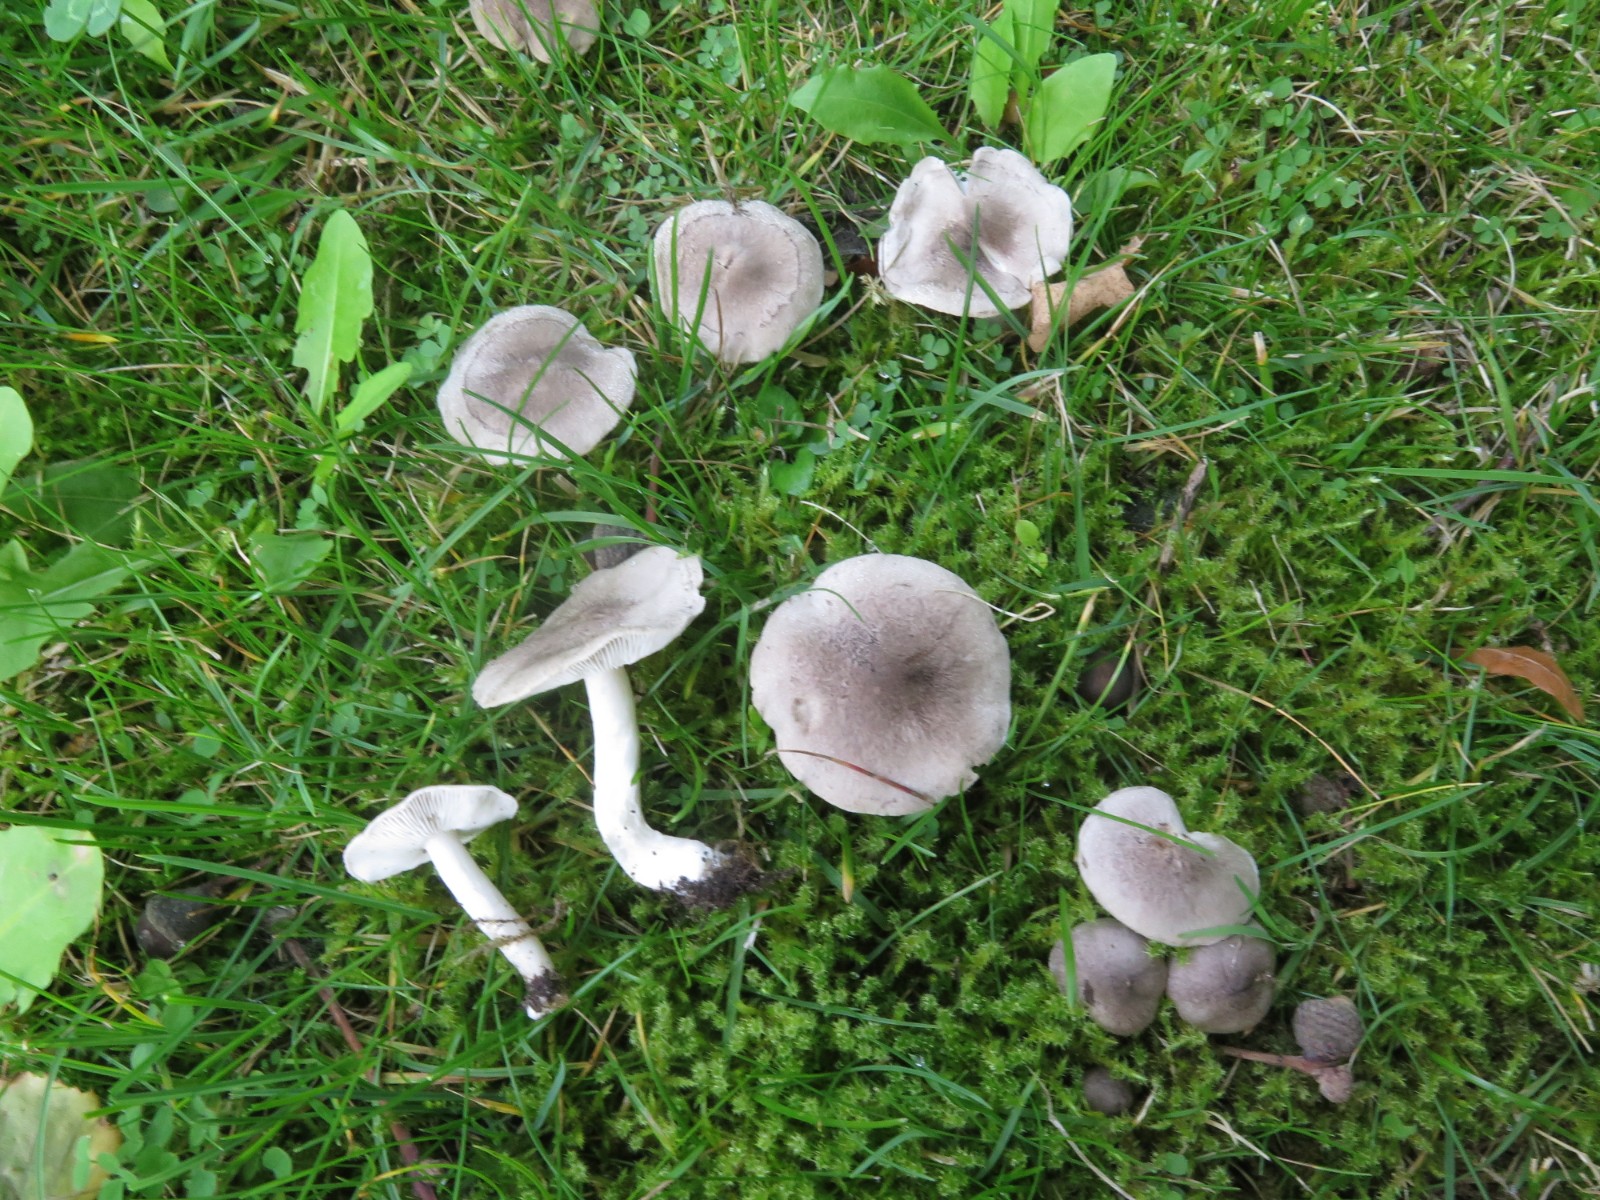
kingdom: Fungi
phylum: Basidiomycota
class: Agaricomycetes
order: Agaricales
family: Tricholomataceae
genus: Tricholoma
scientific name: Tricholoma scalpturatum
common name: gulplettet ridderhat
